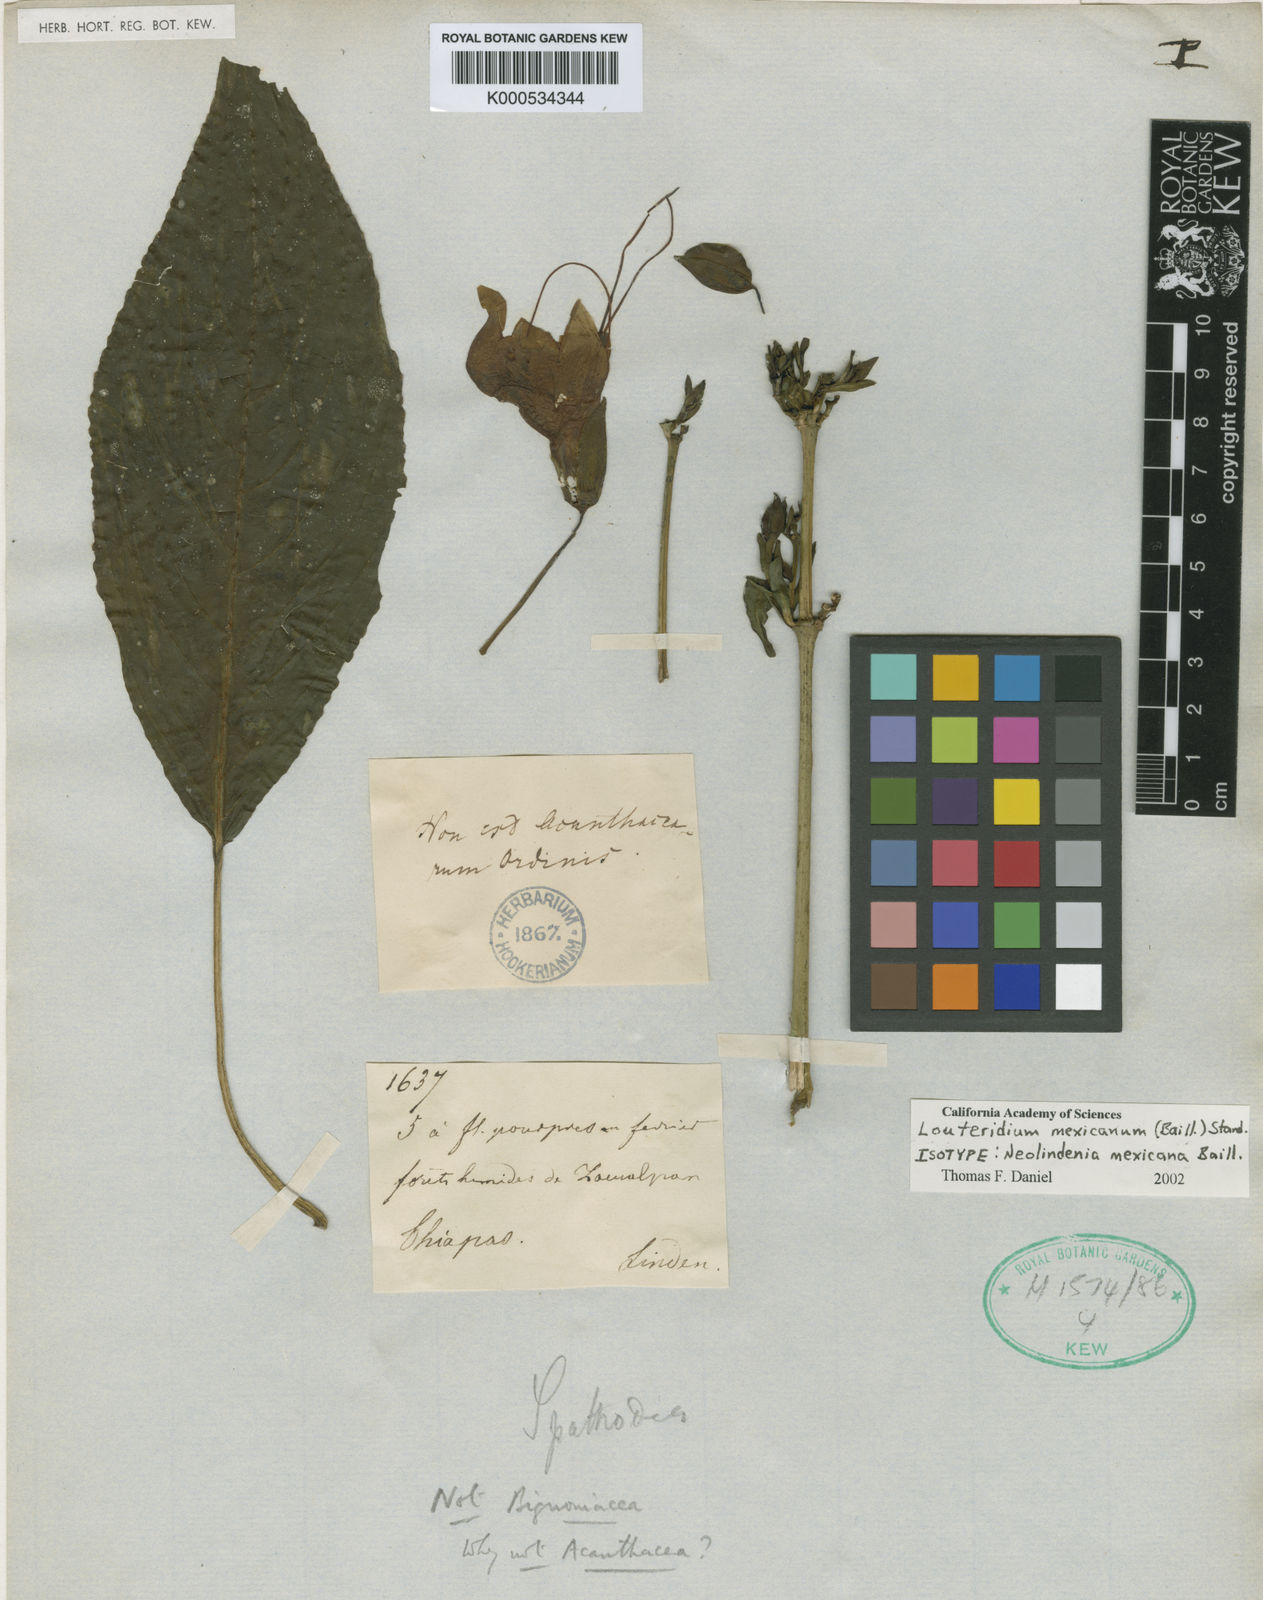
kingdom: Plantae
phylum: Tracheophyta
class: Magnoliopsida
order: Lamiales
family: Acanthaceae
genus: Louteridium
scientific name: Louteridium mexicanum
